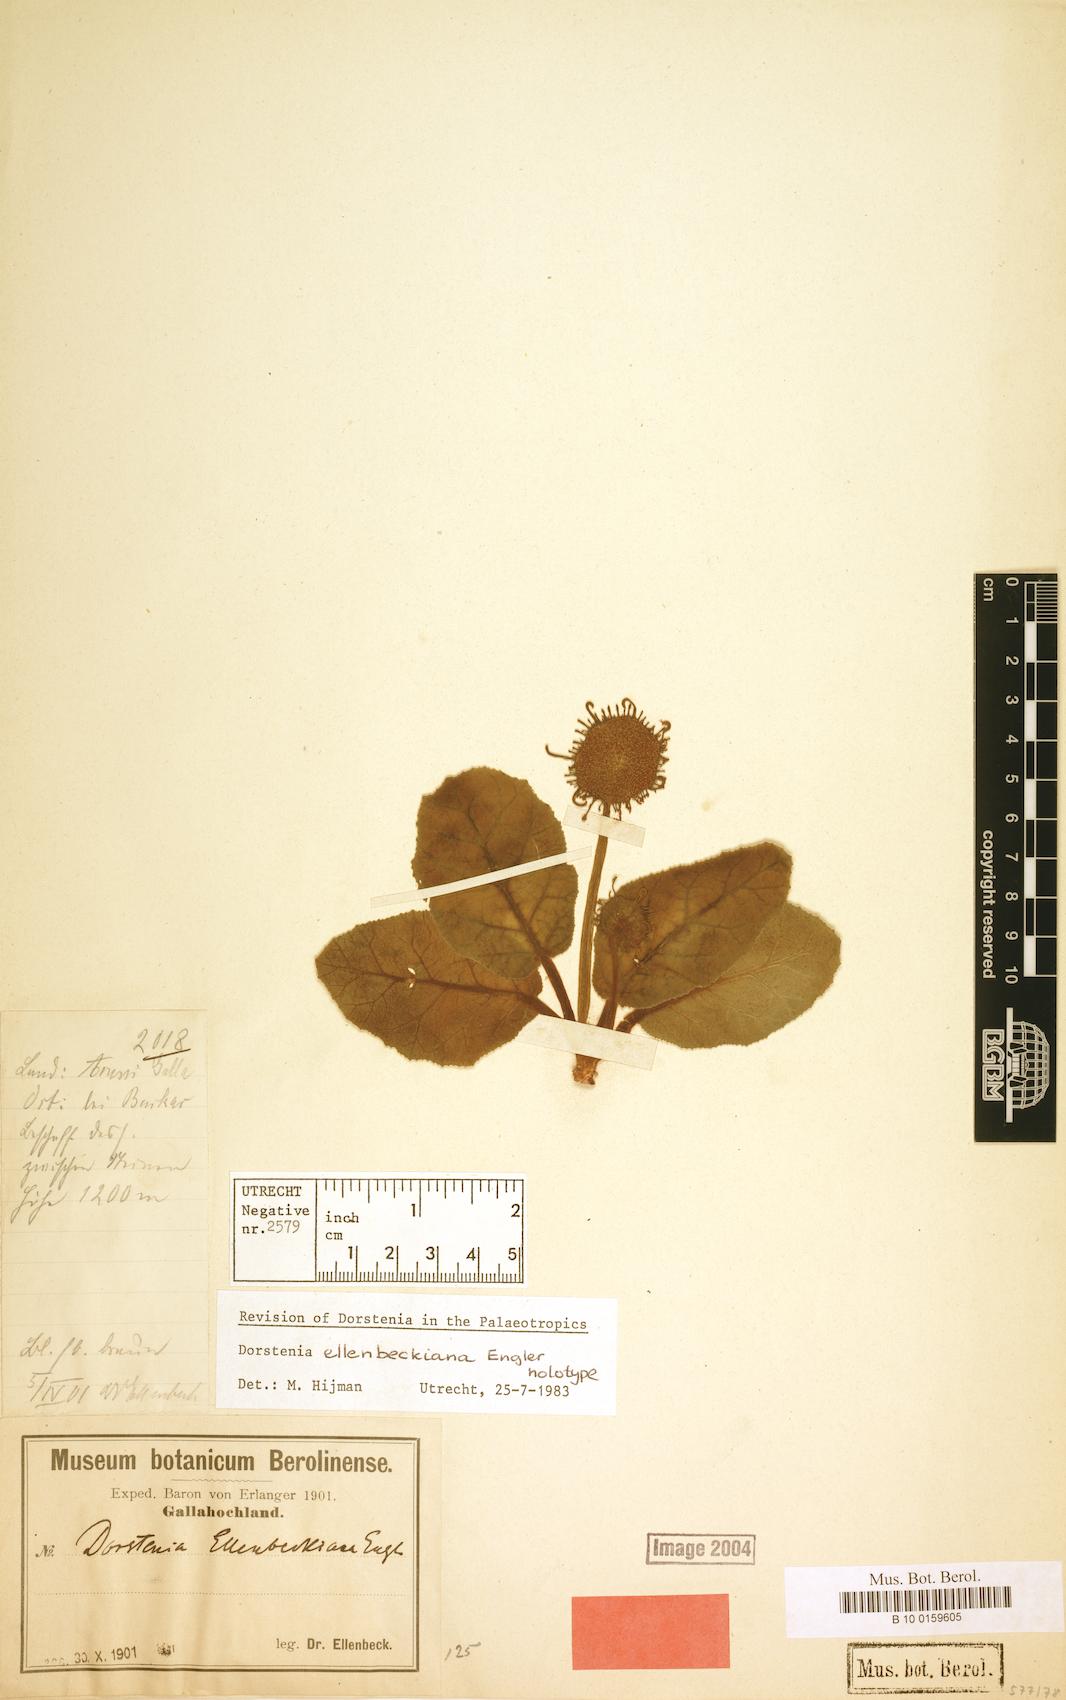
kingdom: Plantae
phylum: Tracheophyta
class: Magnoliopsida
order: Rosales
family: Moraceae
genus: Dorstenia
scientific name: Dorstenia ellenbeckiana
